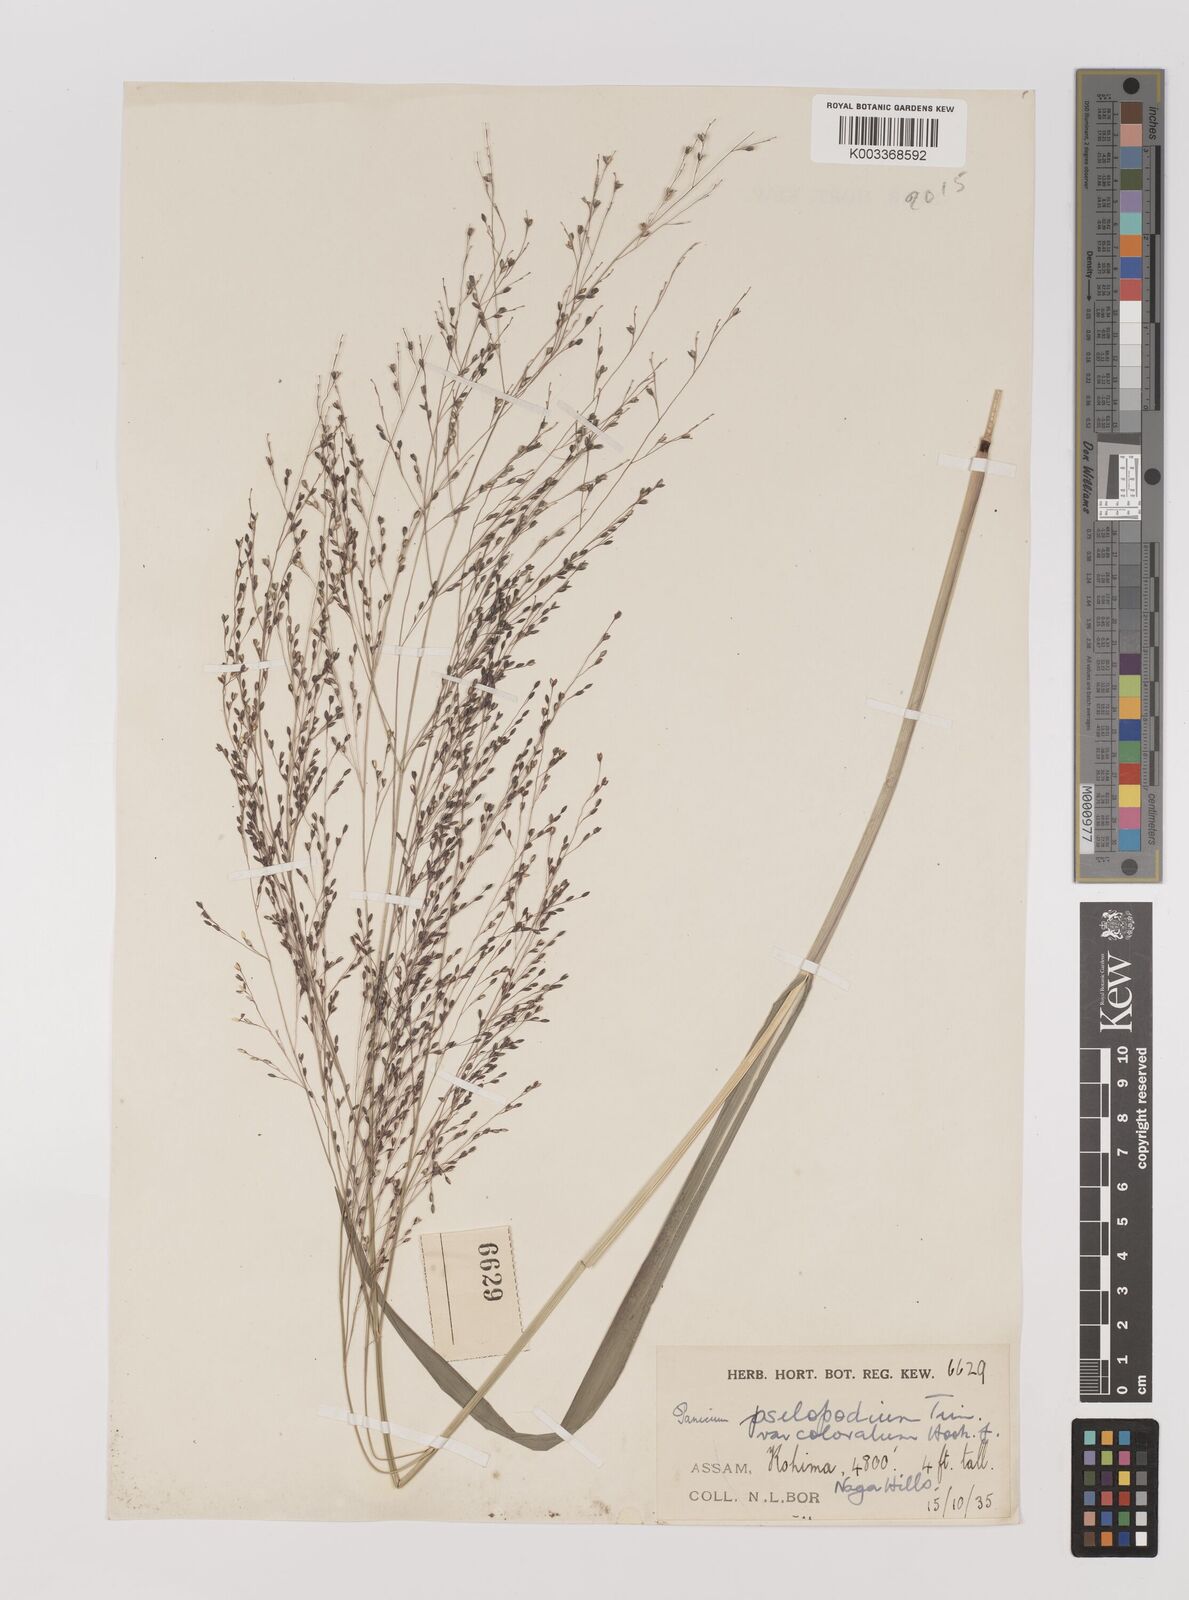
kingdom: Plantae
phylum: Tracheophyta
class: Liliopsida
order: Poales
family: Poaceae
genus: Panicum
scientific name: Panicum sumatrense
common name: Little millet
